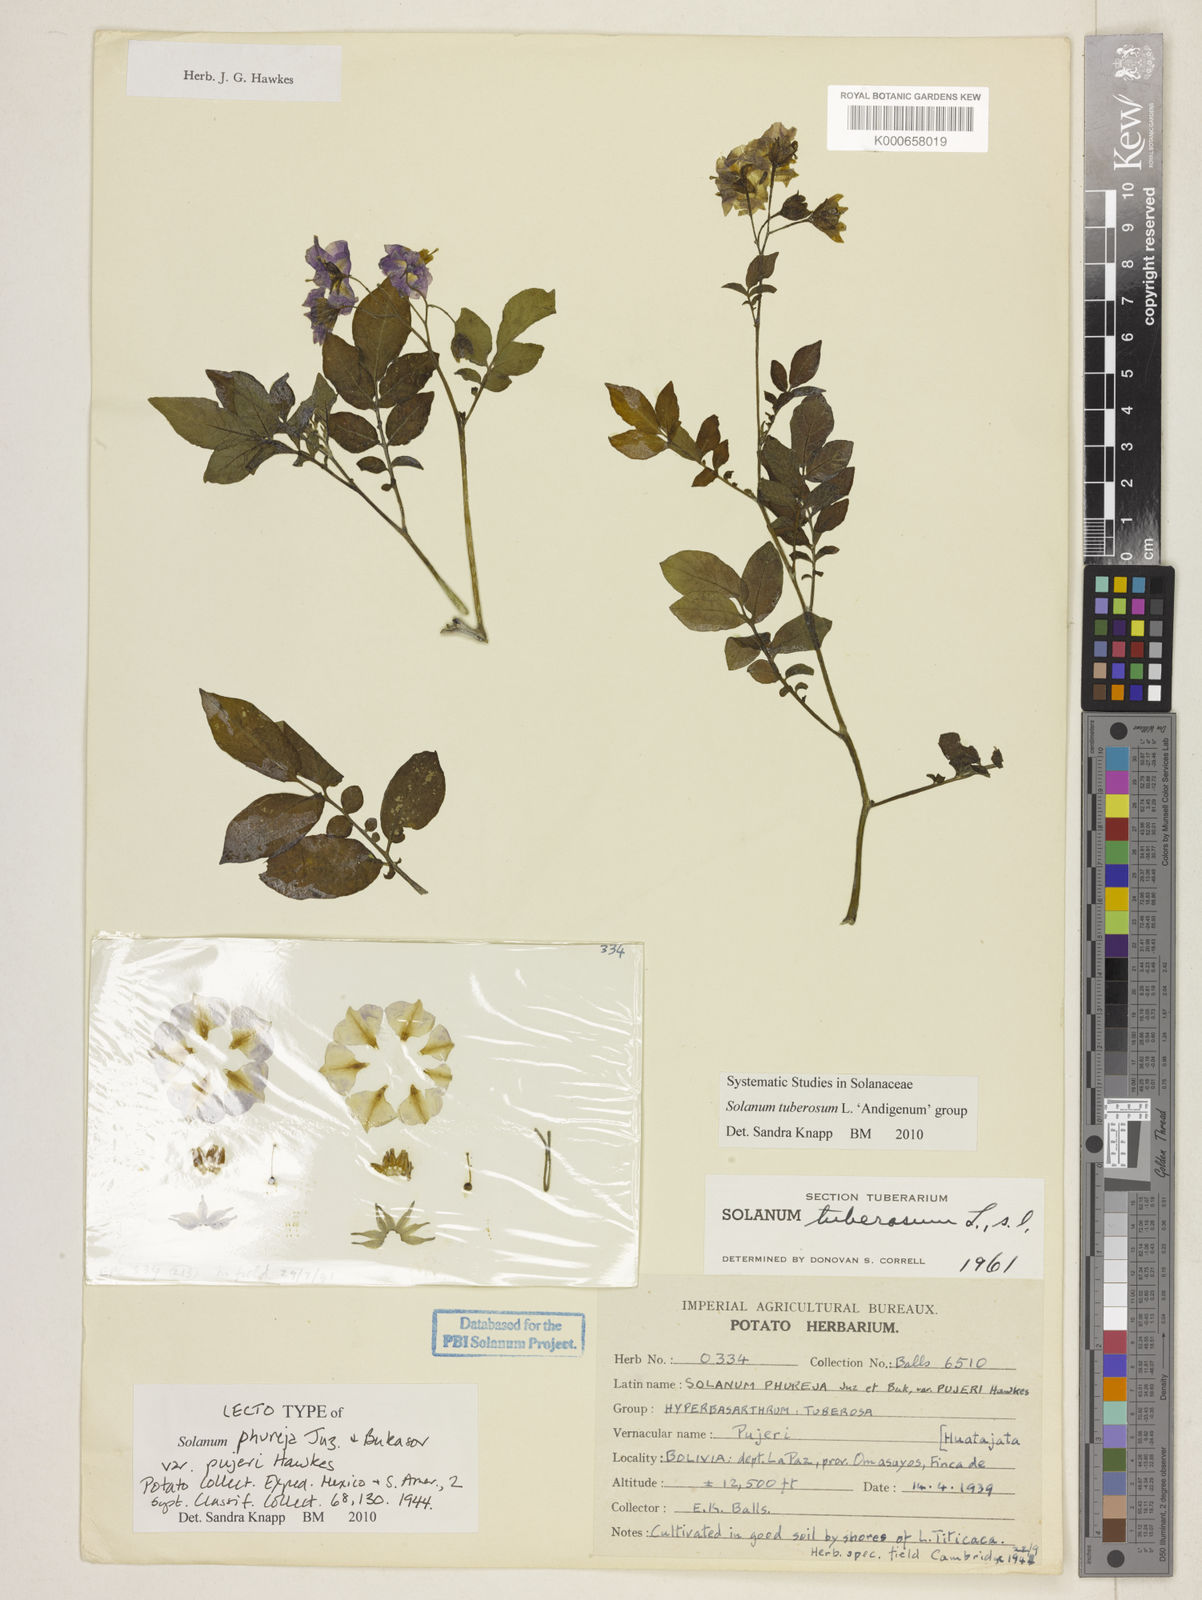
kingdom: Plantae
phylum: Tracheophyta
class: Magnoliopsida
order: Solanales
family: Solanaceae
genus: Solanum
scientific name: Solanum tuberosum
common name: Potato
